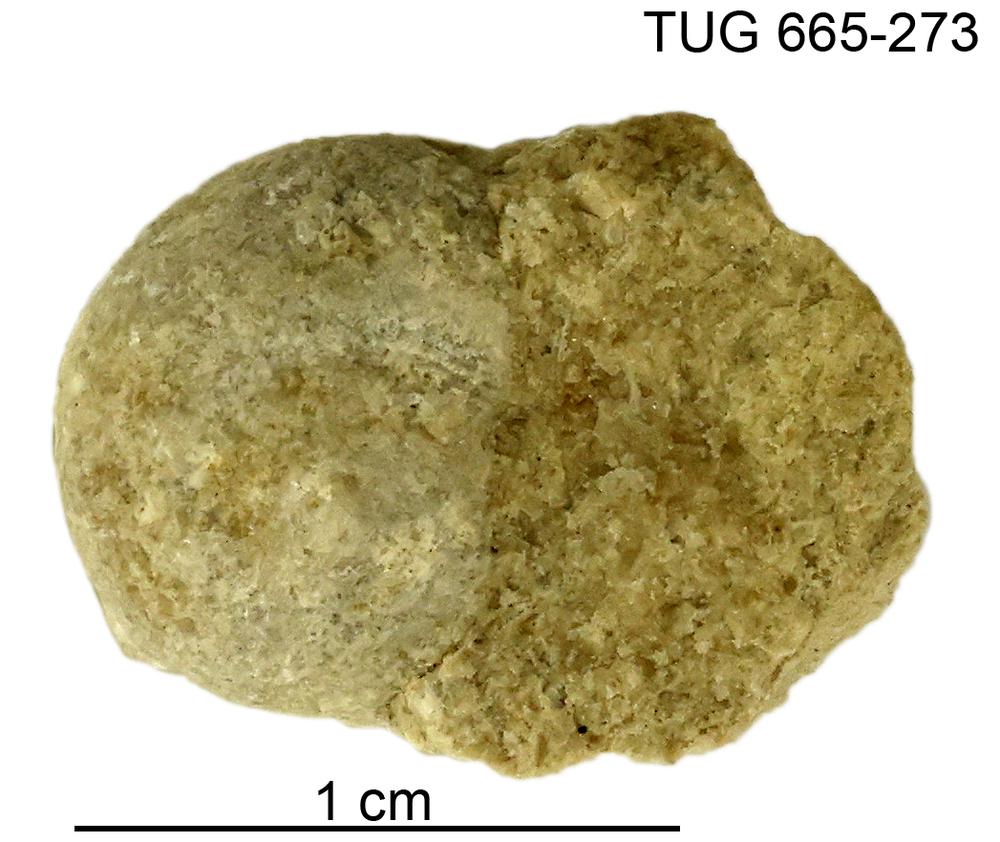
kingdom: Animalia
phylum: Mollusca
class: Gastropoda
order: Pleurotomariida
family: Planitrochidae
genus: Trochomphalus
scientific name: Trochomphalus Pycnomphalus borkholmiensis
